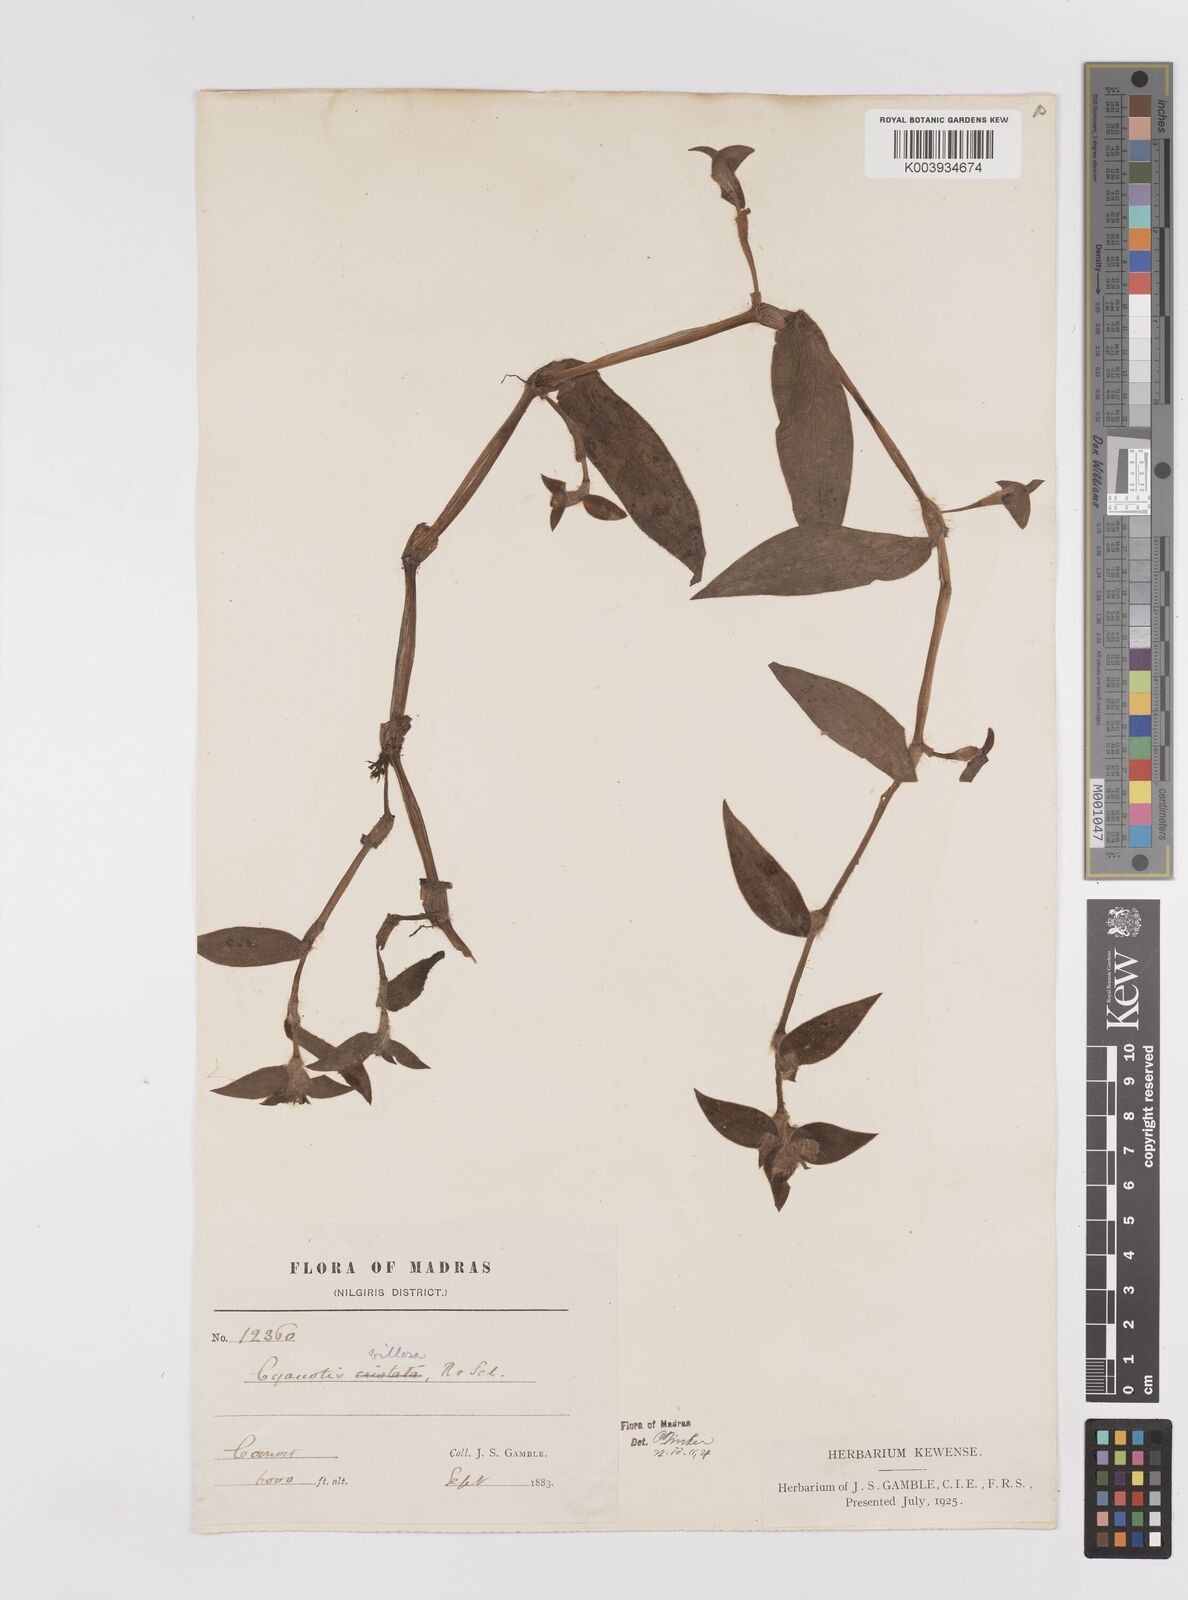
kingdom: Plantae
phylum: Tracheophyta
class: Liliopsida
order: Commelinales
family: Commelinaceae
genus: Cyanotis
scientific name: Cyanotis villosa
